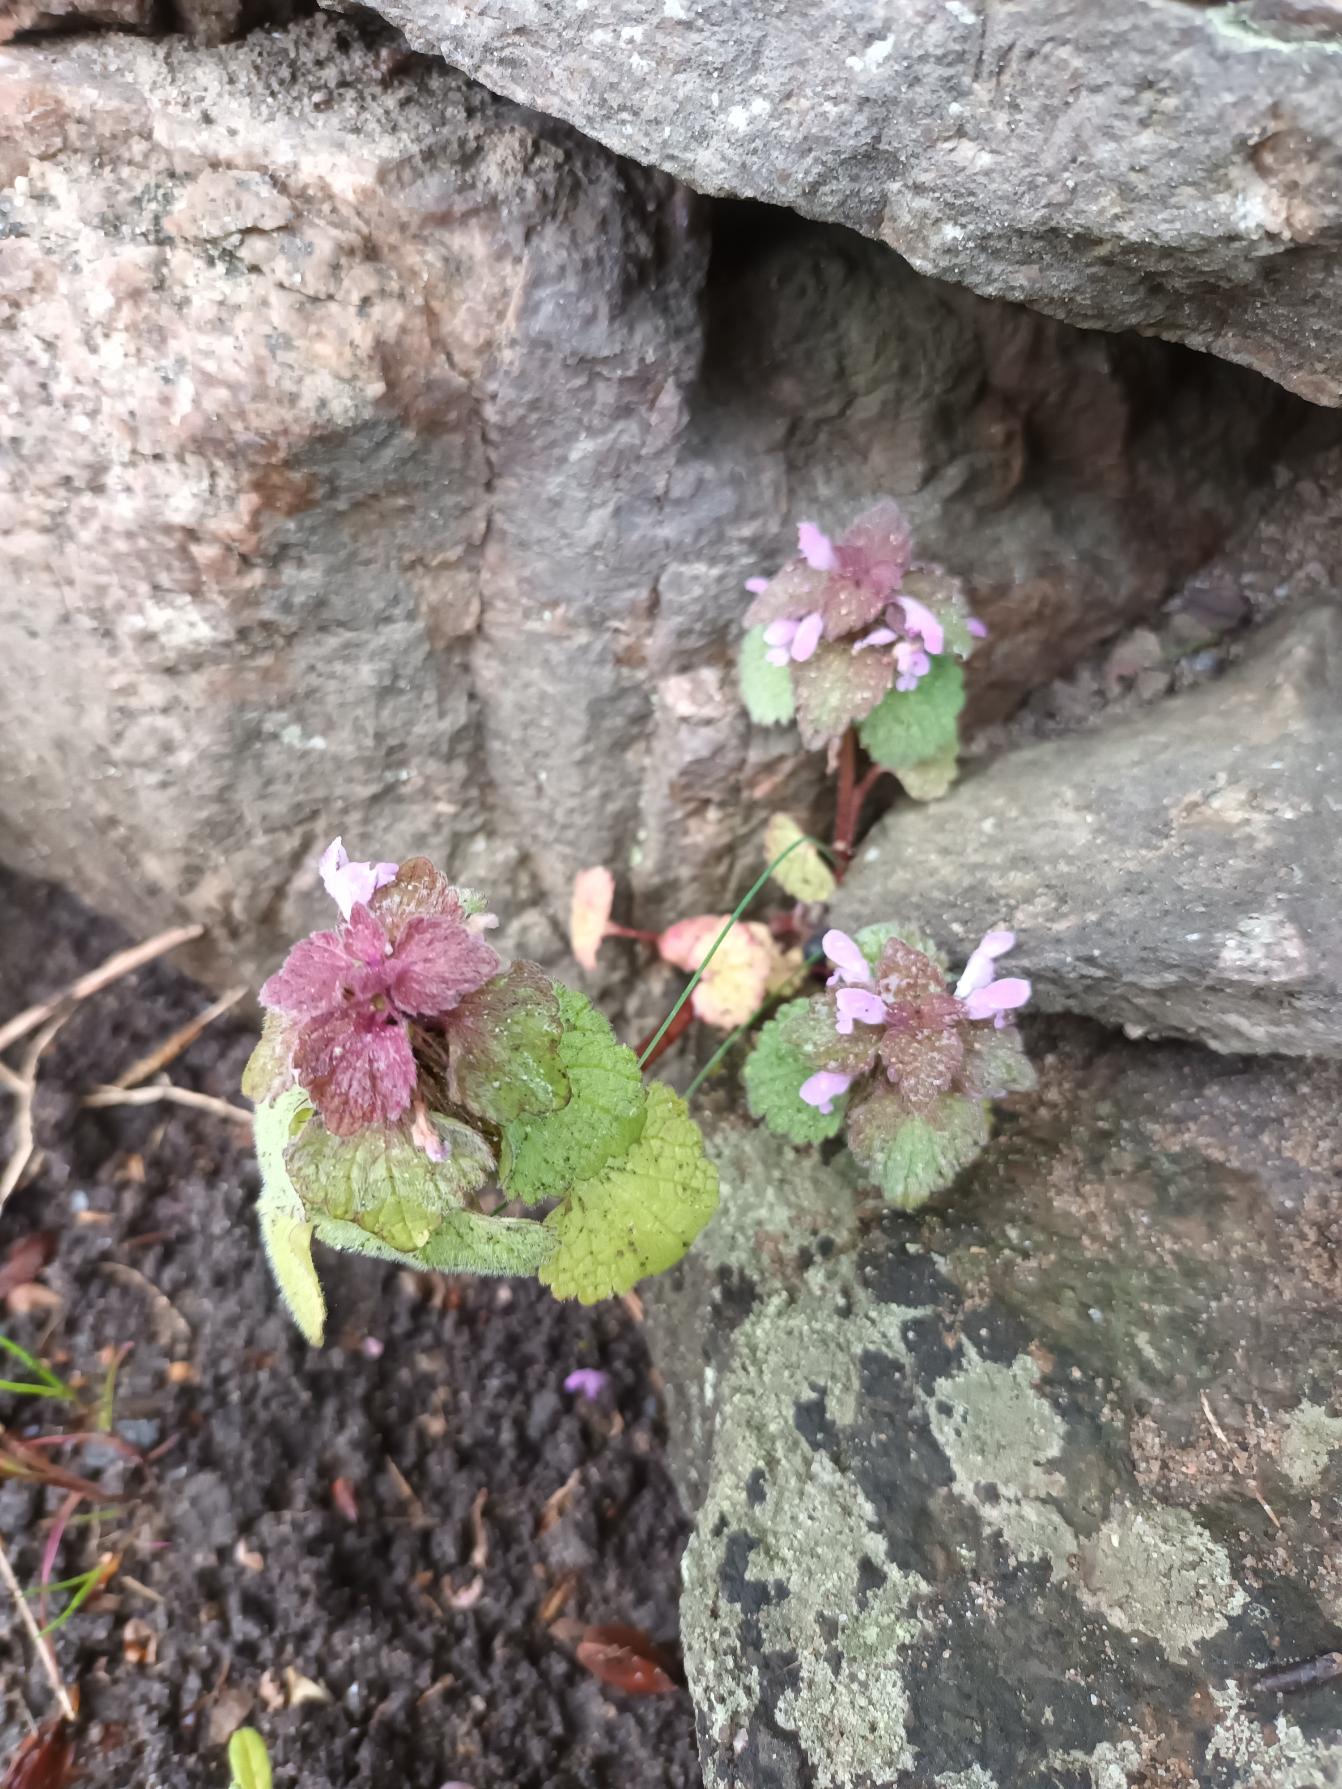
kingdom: Plantae
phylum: Tracheophyta
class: Magnoliopsida
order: Lamiales
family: Lamiaceae
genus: Lamium
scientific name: Lamium purpureum
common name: Rød tvetand
